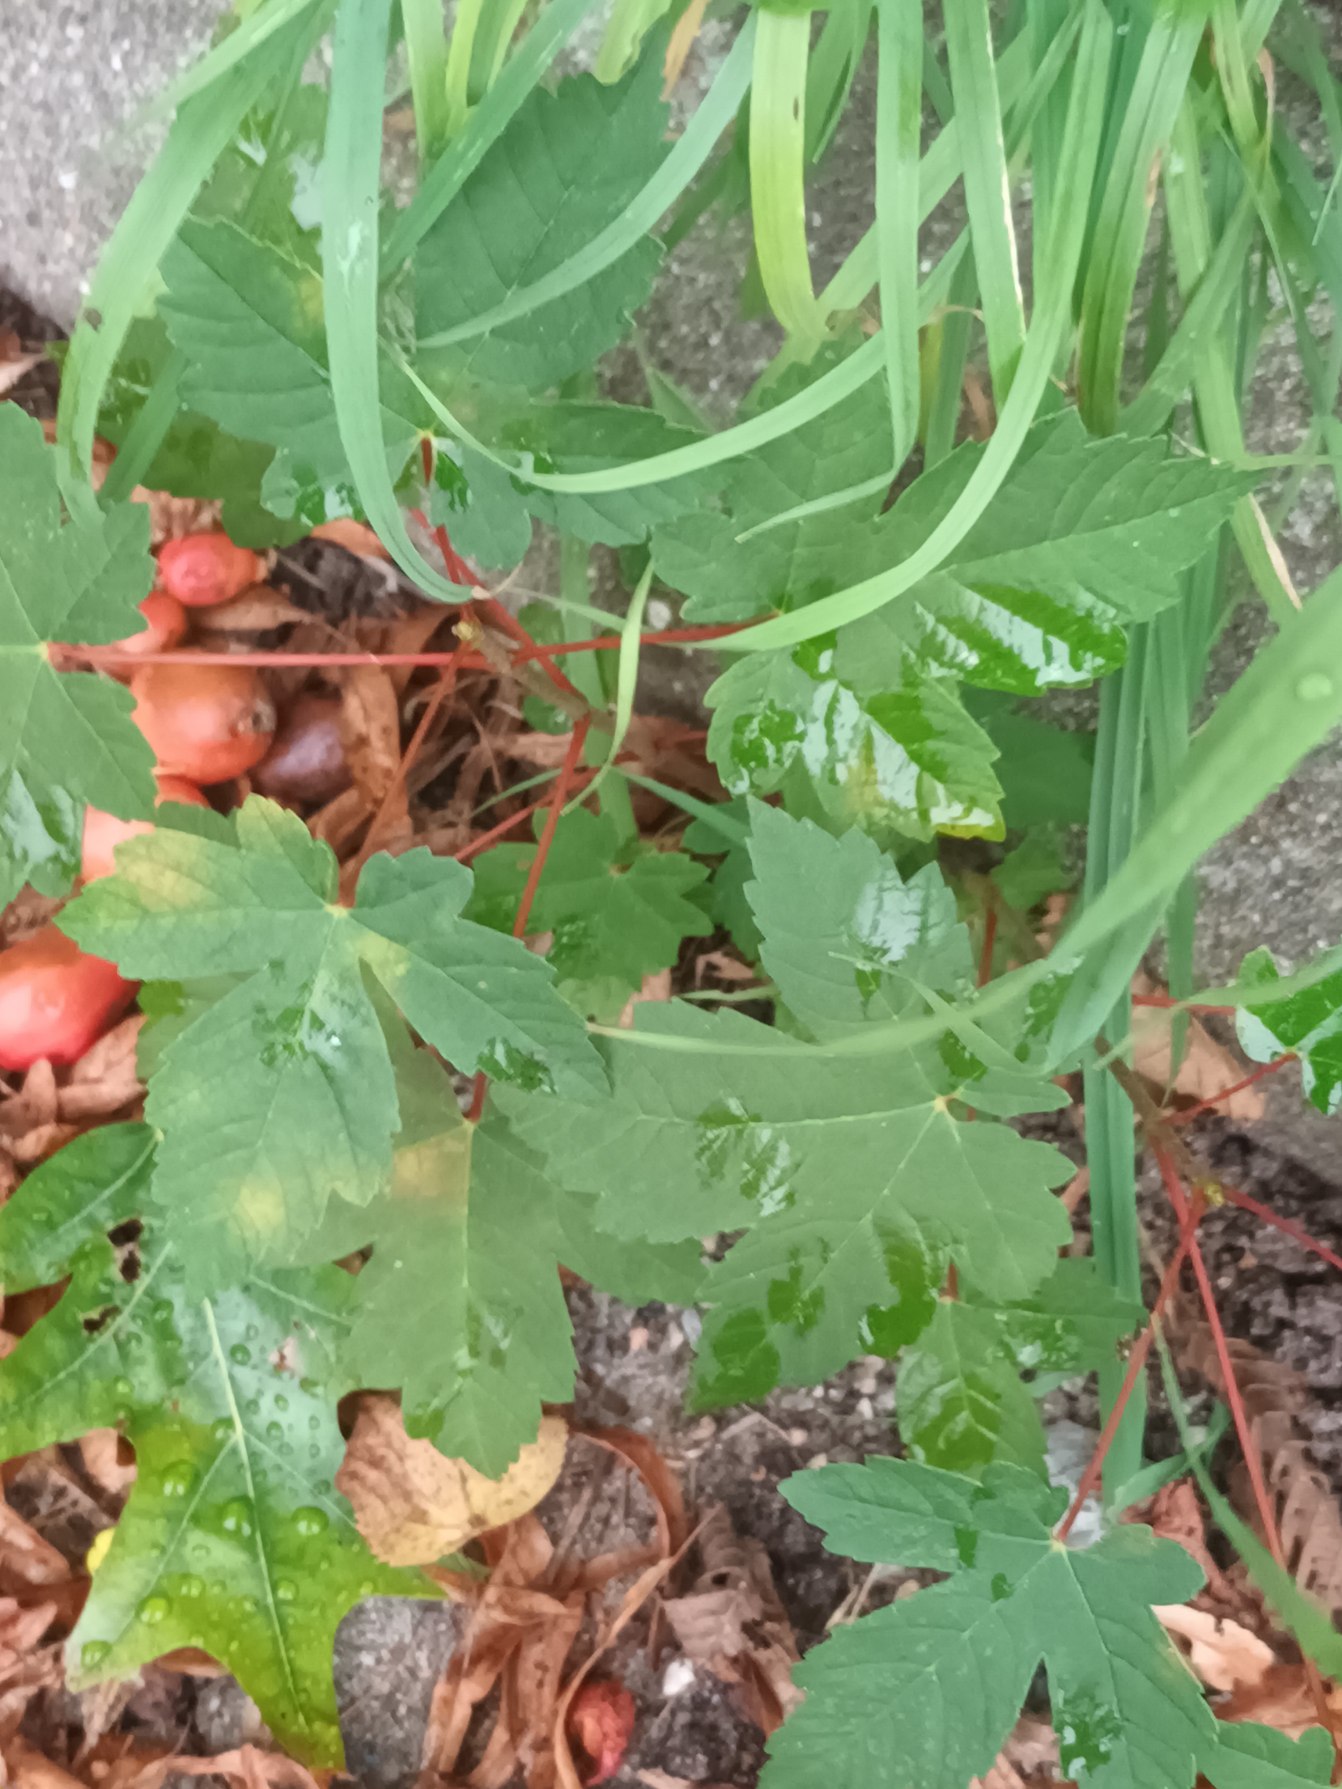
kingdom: Plantae
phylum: Tracheophyta
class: Magnoliopsida
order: Sapindales
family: Sapindaceae
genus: Acer
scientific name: Acer pseudoplatanus
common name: Ahorn
